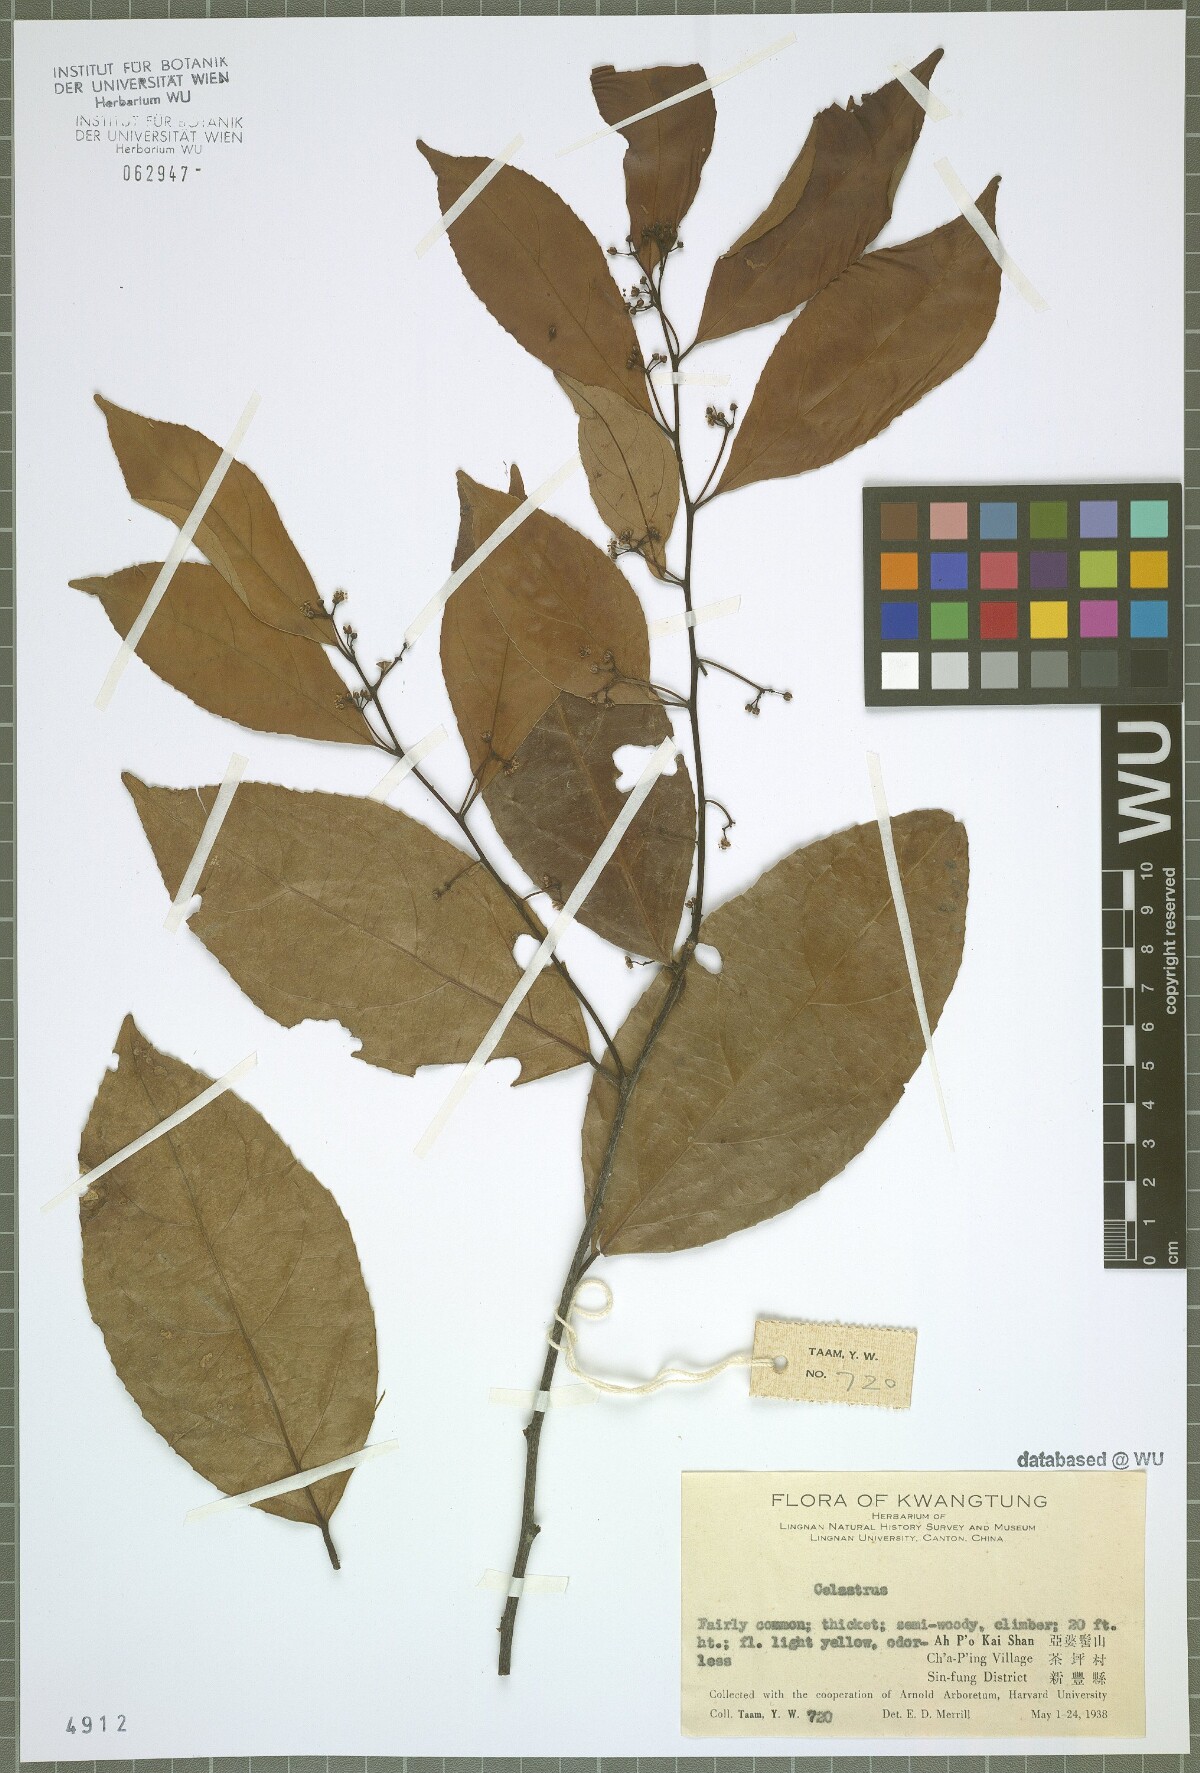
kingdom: Plantae
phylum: Tracheophyta
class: Magnoliopsida
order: Celastrales
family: Celastraceae
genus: Celastrus
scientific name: Celastrus
